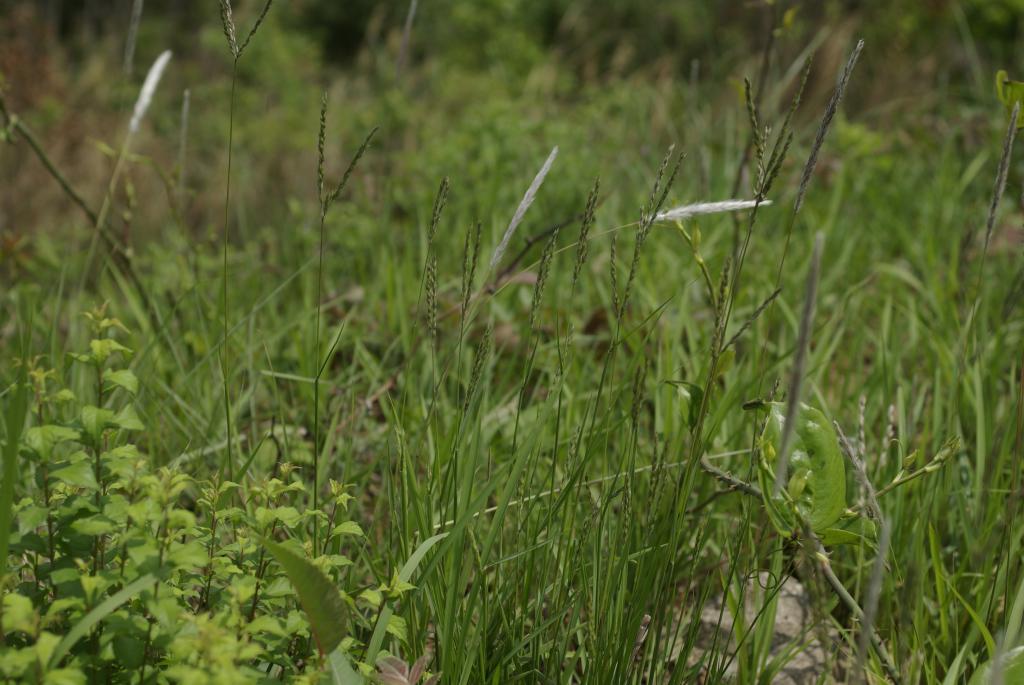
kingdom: Plantae
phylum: Tracheophyta
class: Liliopsida
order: Poales
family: Poaceae
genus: Alloteropsis
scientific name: Alloteropsis semialata
